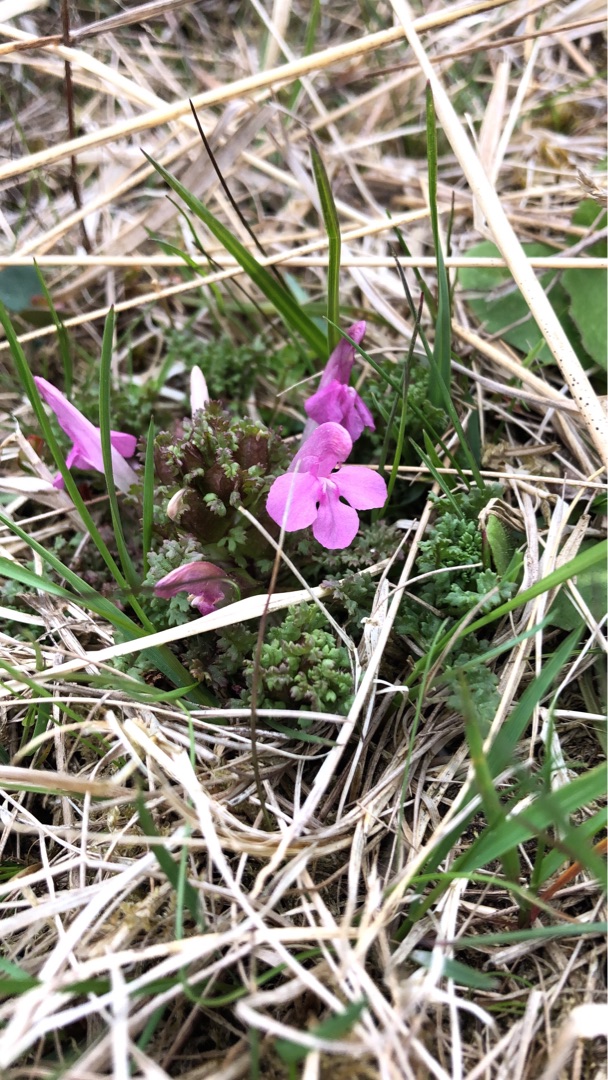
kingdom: Plantae
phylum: Tracheophyta
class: Magnoliopsida
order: Lamiales
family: Orobanchaceae
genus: Pedicularis
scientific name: Pedicularis sylvatica
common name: Mose-troldurt
